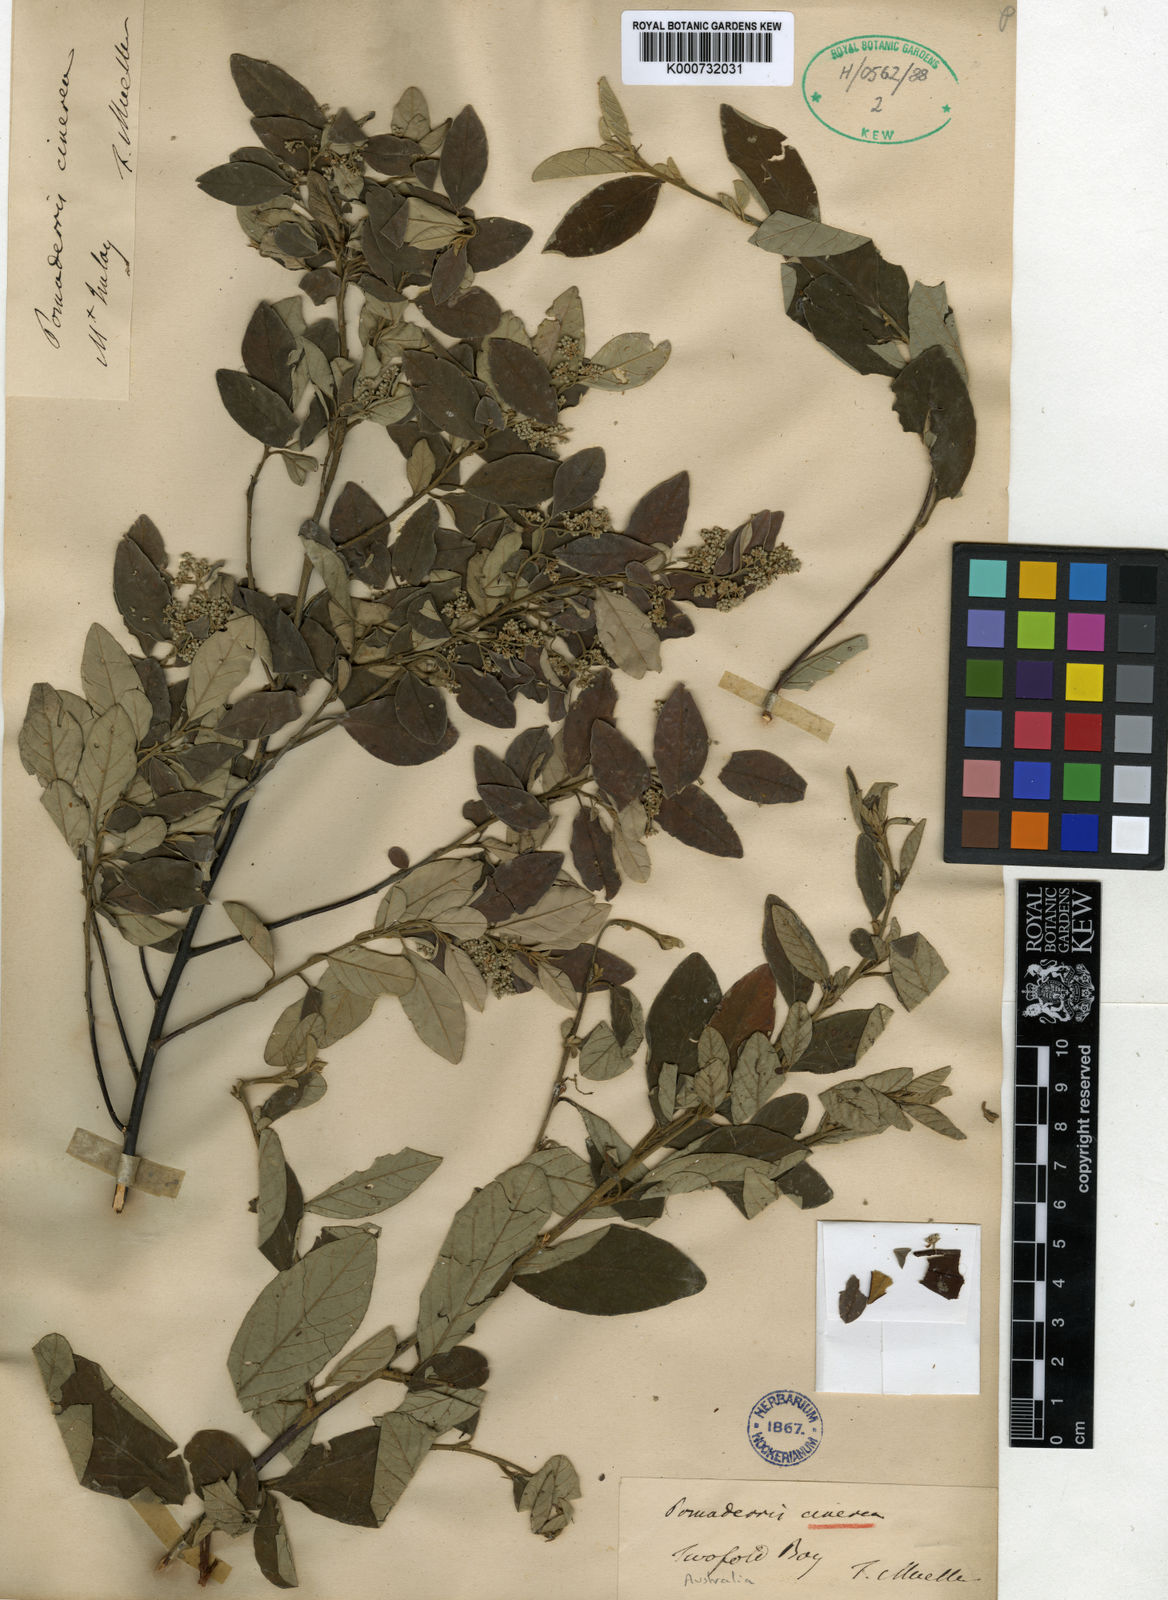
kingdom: Plantae
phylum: Tracheophyta
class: Magnoliopsida
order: Rosales
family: Rhamnaceae
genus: Pomaderris
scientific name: Pomaderris cinerea
